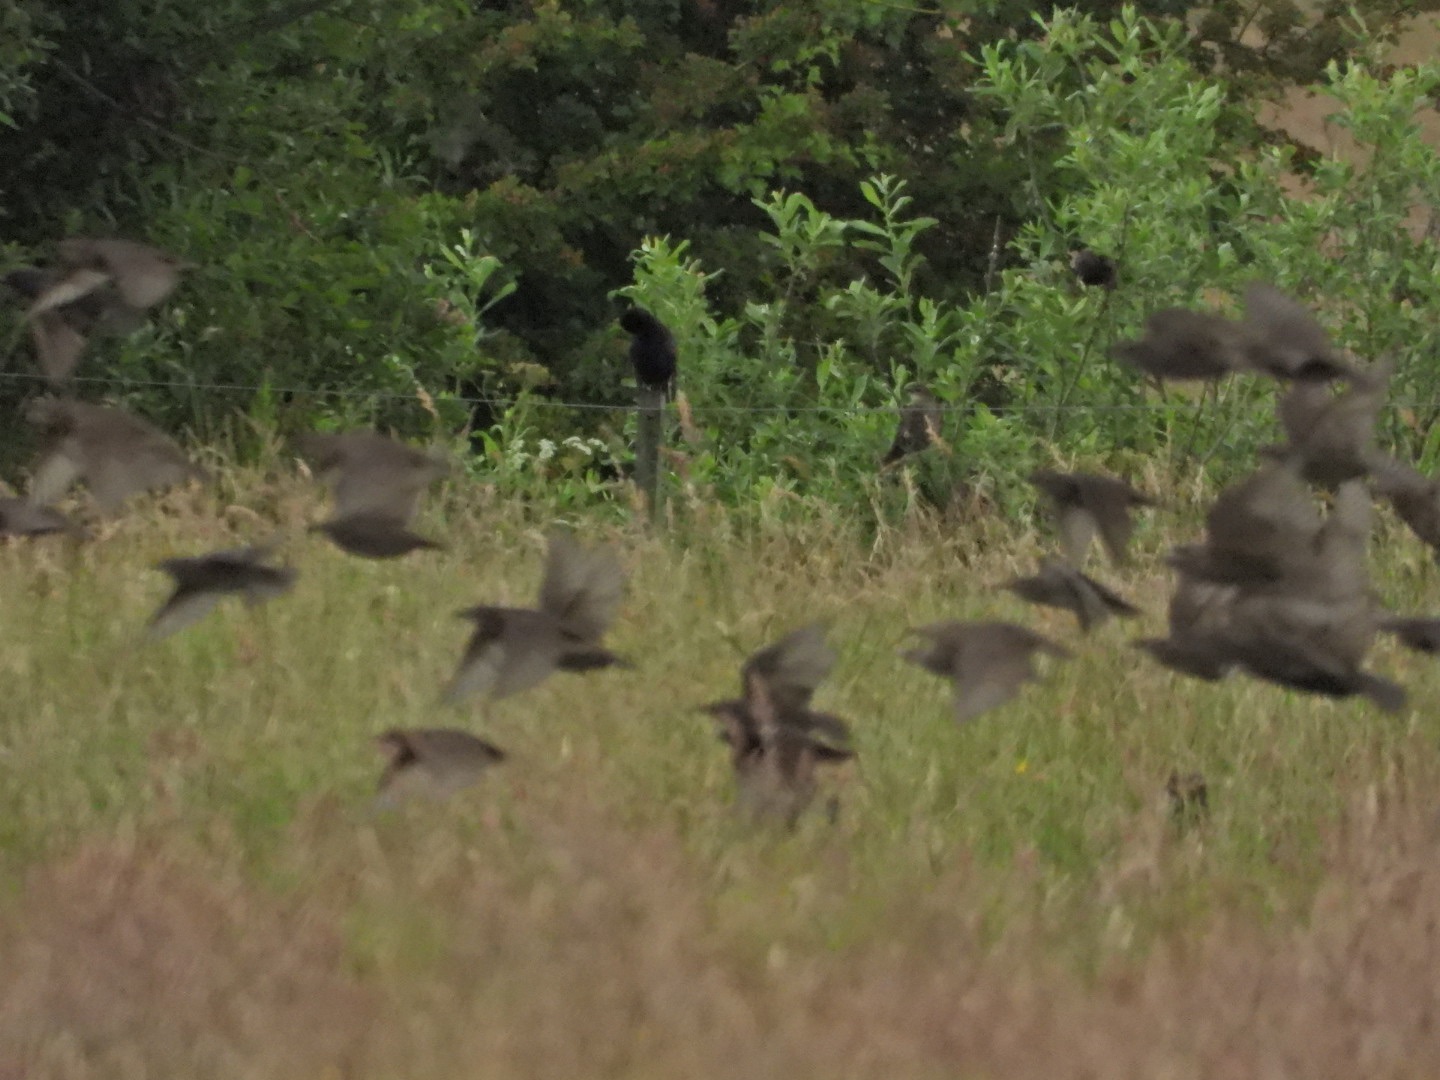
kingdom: Animalia
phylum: Chordata
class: Aves
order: Passeriformes
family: Sturnidae
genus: Sturnus
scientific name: Sturnus vulgaris
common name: Stær
